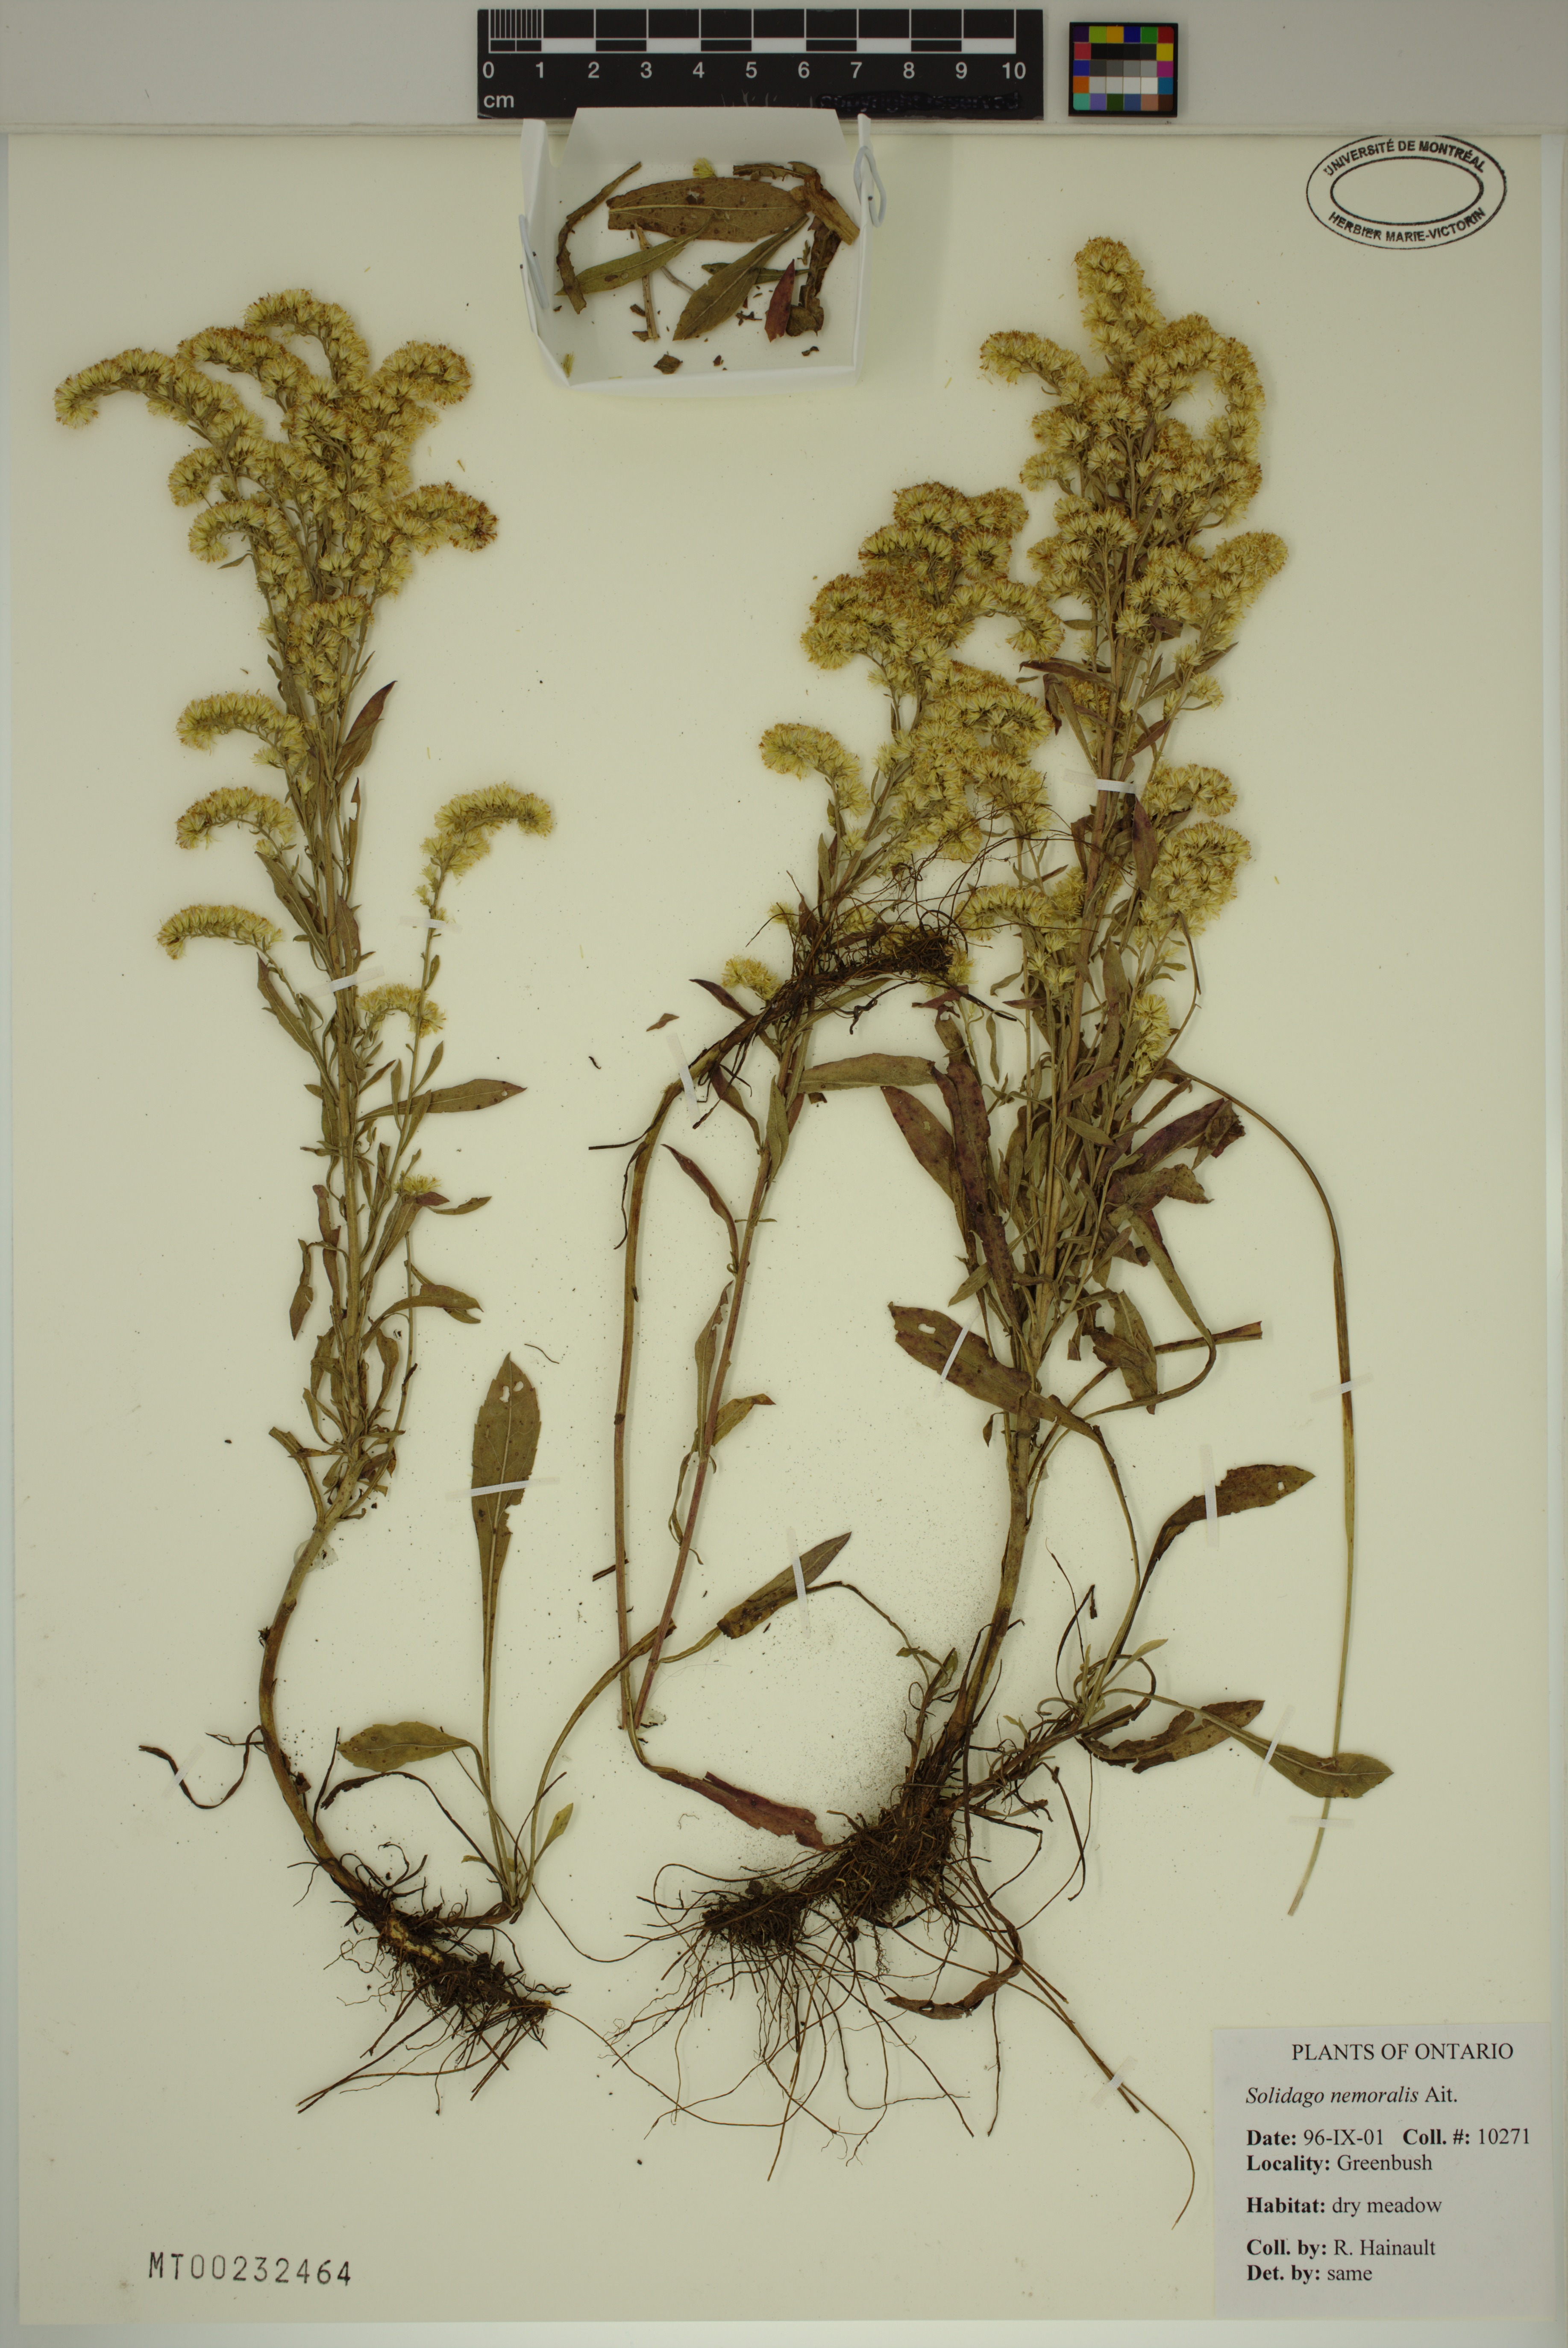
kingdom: Plantae
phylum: Tracheophyta
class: Magnoliopsida
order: Asterales
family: Asteraceae
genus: Solidago
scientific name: Solidago nemoralis
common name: Grey goldenrod
